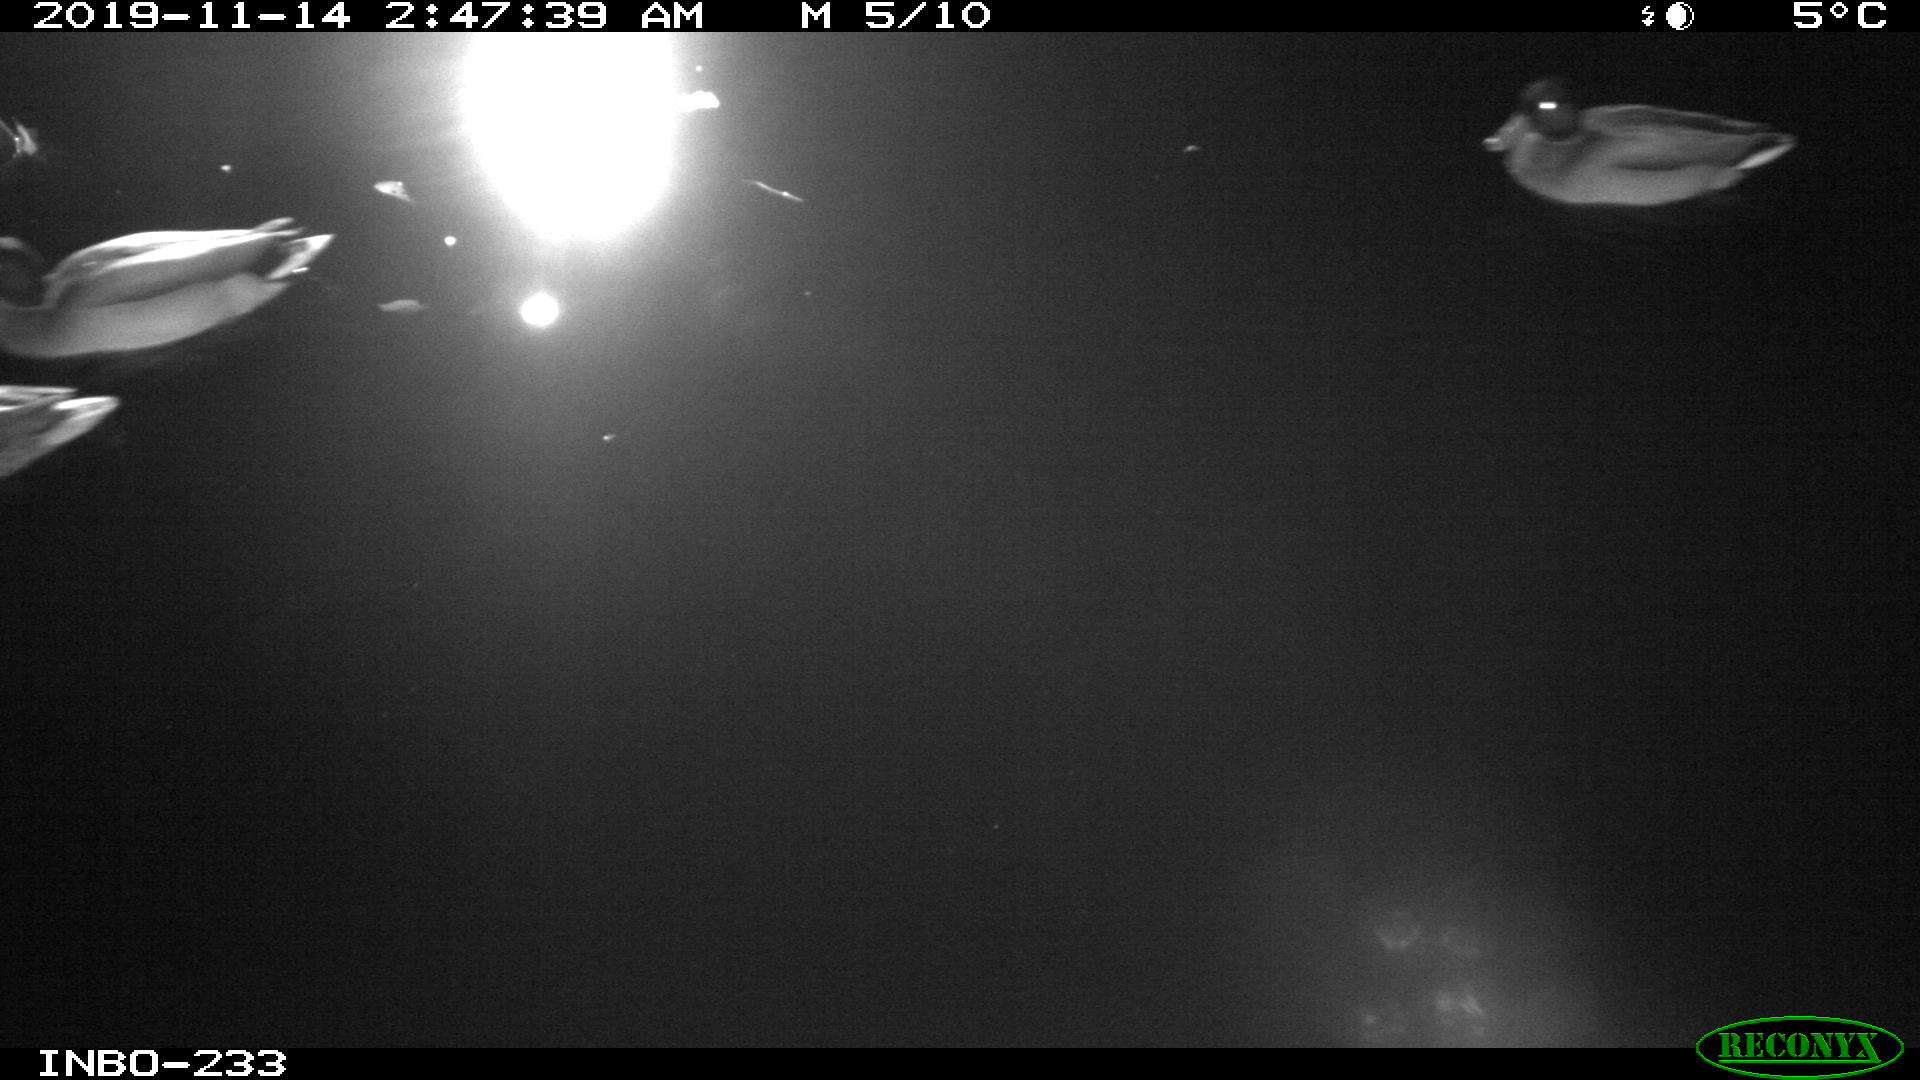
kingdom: Animalia
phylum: Chordata
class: Aves
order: Anseriformes
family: Anatidae
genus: Anas
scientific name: Anas platyrhynchos
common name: Mallard
